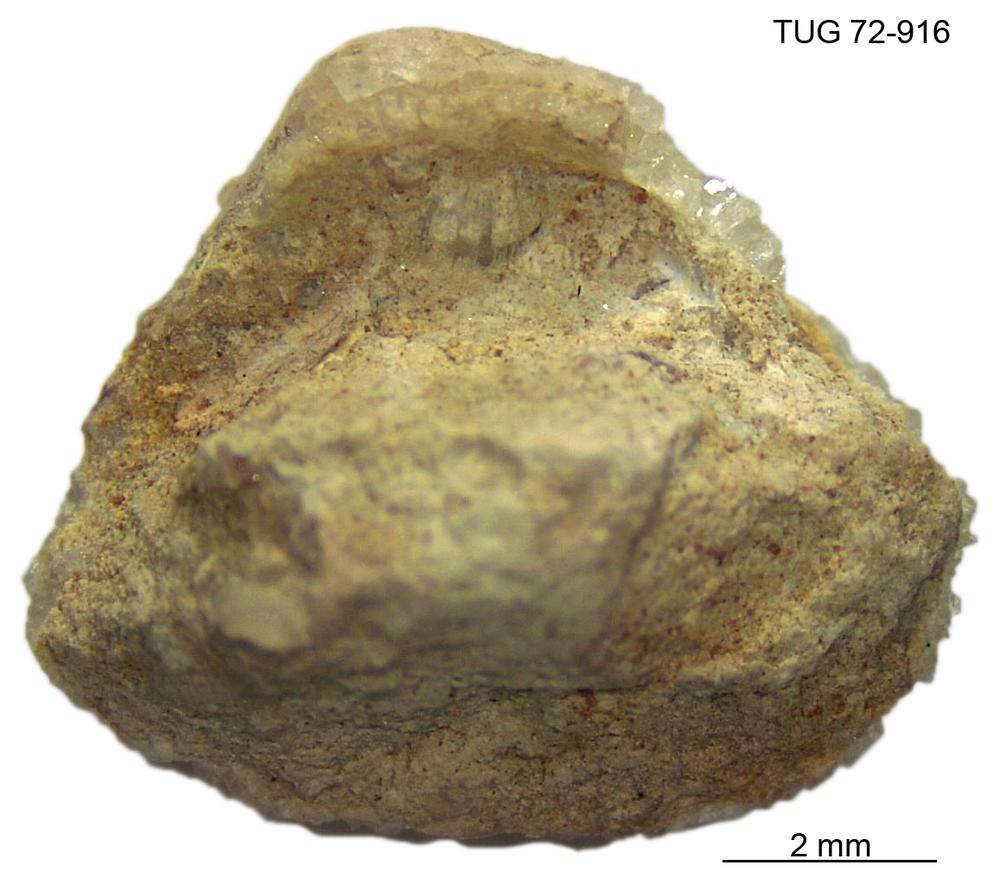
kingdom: Animalia
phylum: Mollusca
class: Bivalvia
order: Solemyida
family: Ctenodontidae
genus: Tancrediopsis
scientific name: Tancrediopsis
